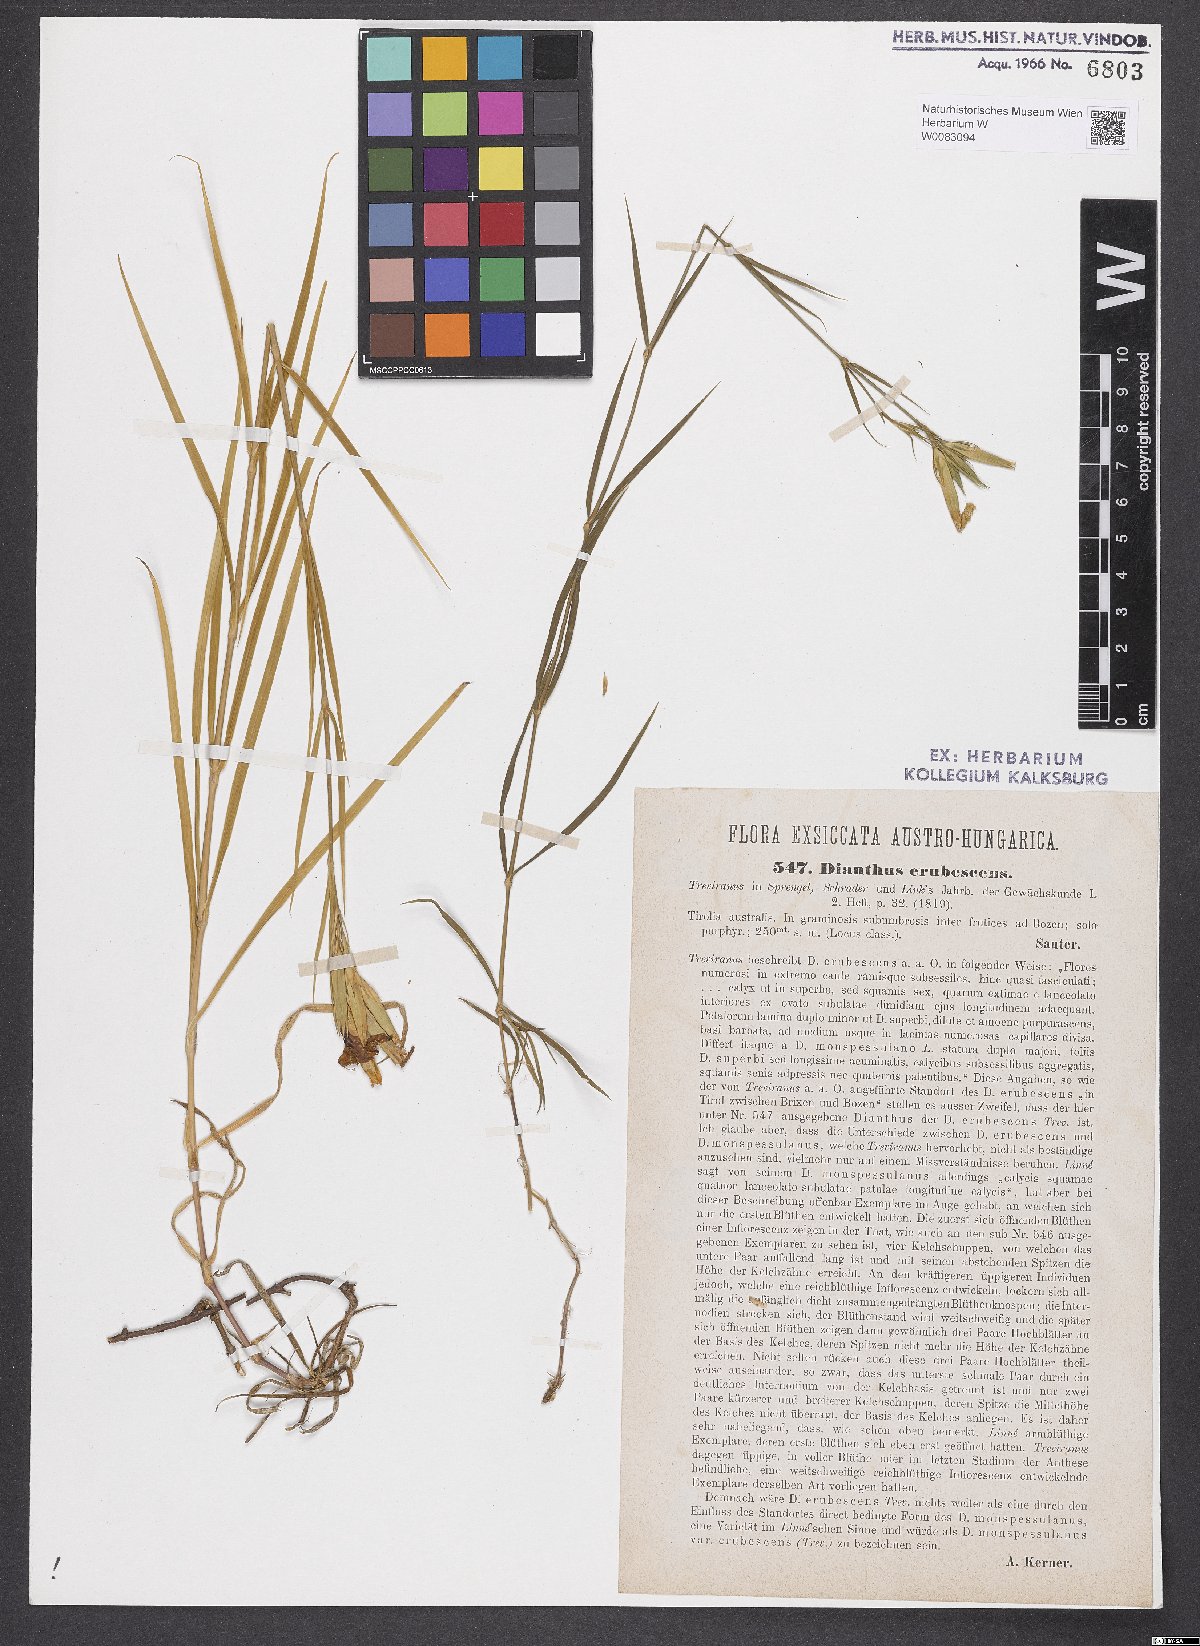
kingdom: Plantae
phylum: Tracheophyta
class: Magnoliopsida
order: Caryophyllales
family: Caryophyllaceae
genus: Dianthus
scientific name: Dianthus erubescens
